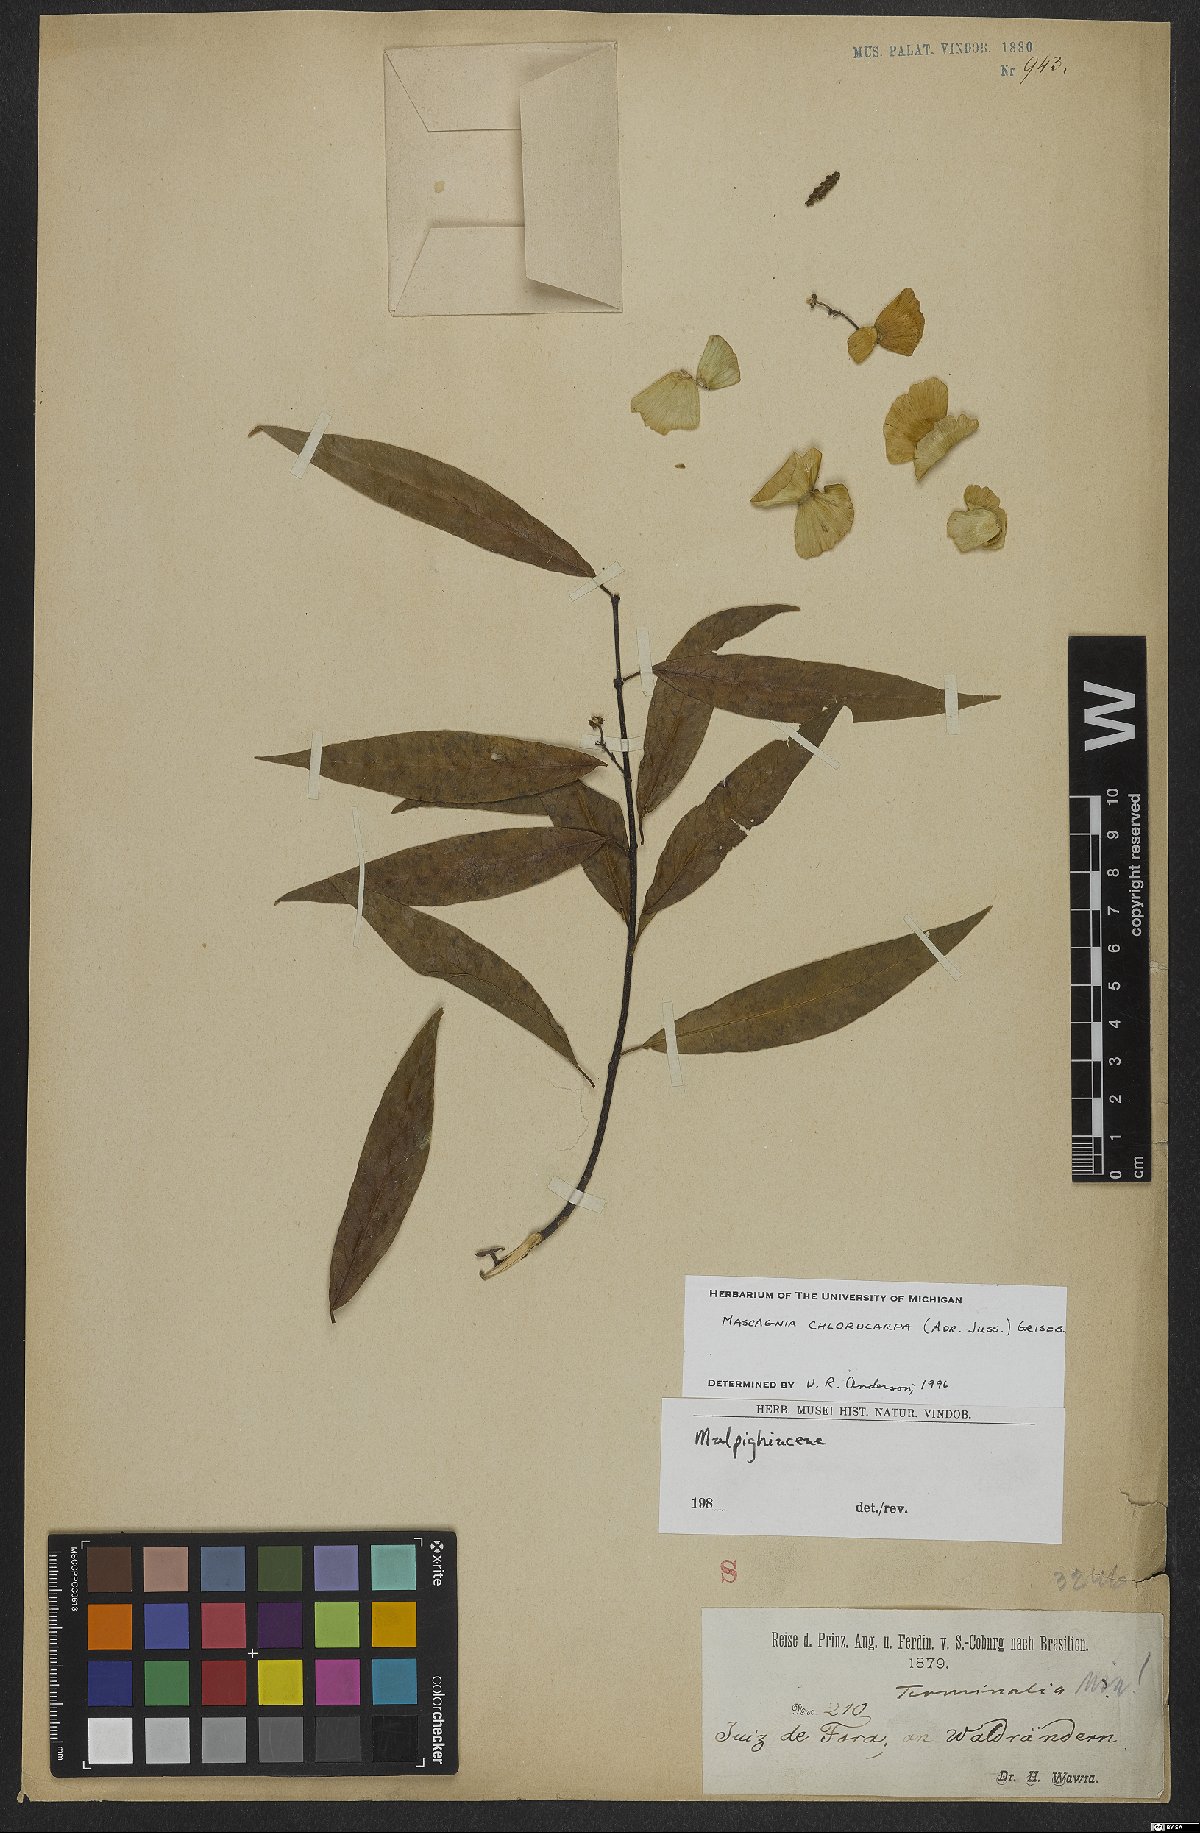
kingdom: Plantae
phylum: Tracheophyta
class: Magnoliopsida
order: Malpighiales
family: Malpighiaceae
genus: Carolus
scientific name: Carolus chlorocarpus
